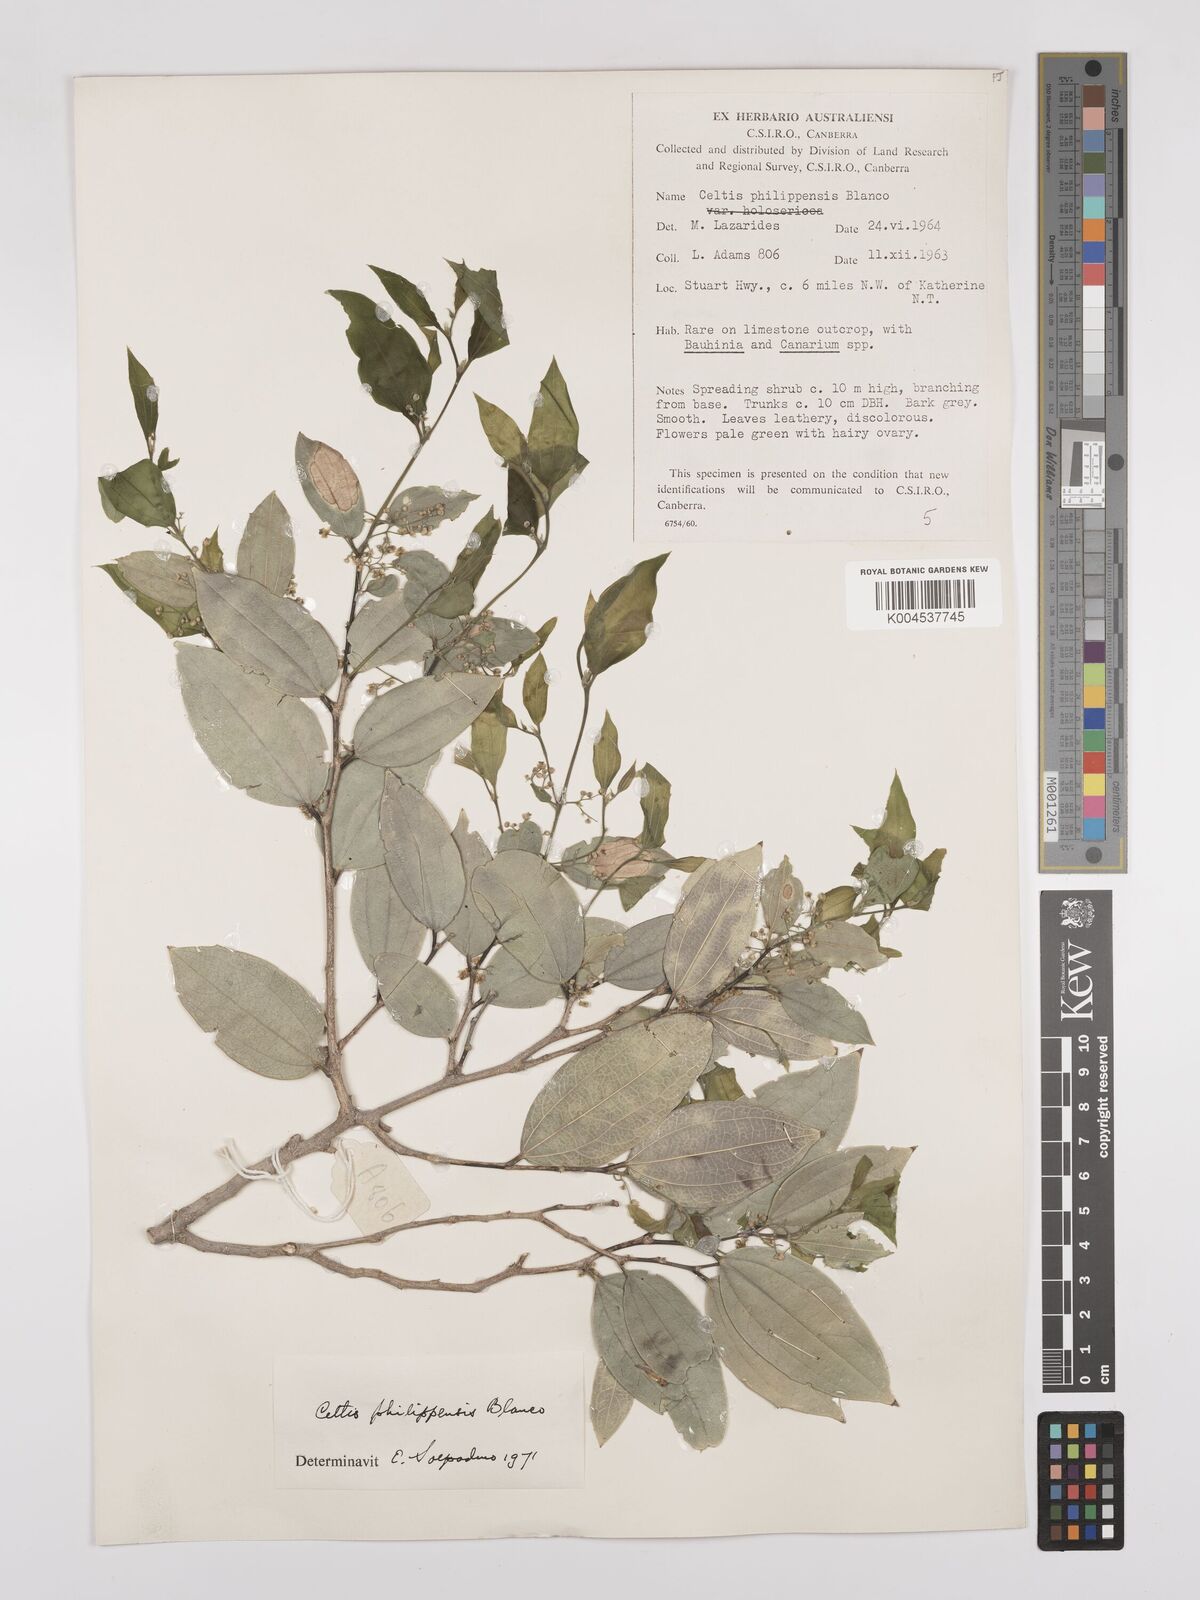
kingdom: Plantae
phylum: Tracheophyta
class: Magnoliopsida
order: Rosales
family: Cannabaceae
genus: Celtis
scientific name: Celtis philippensis
